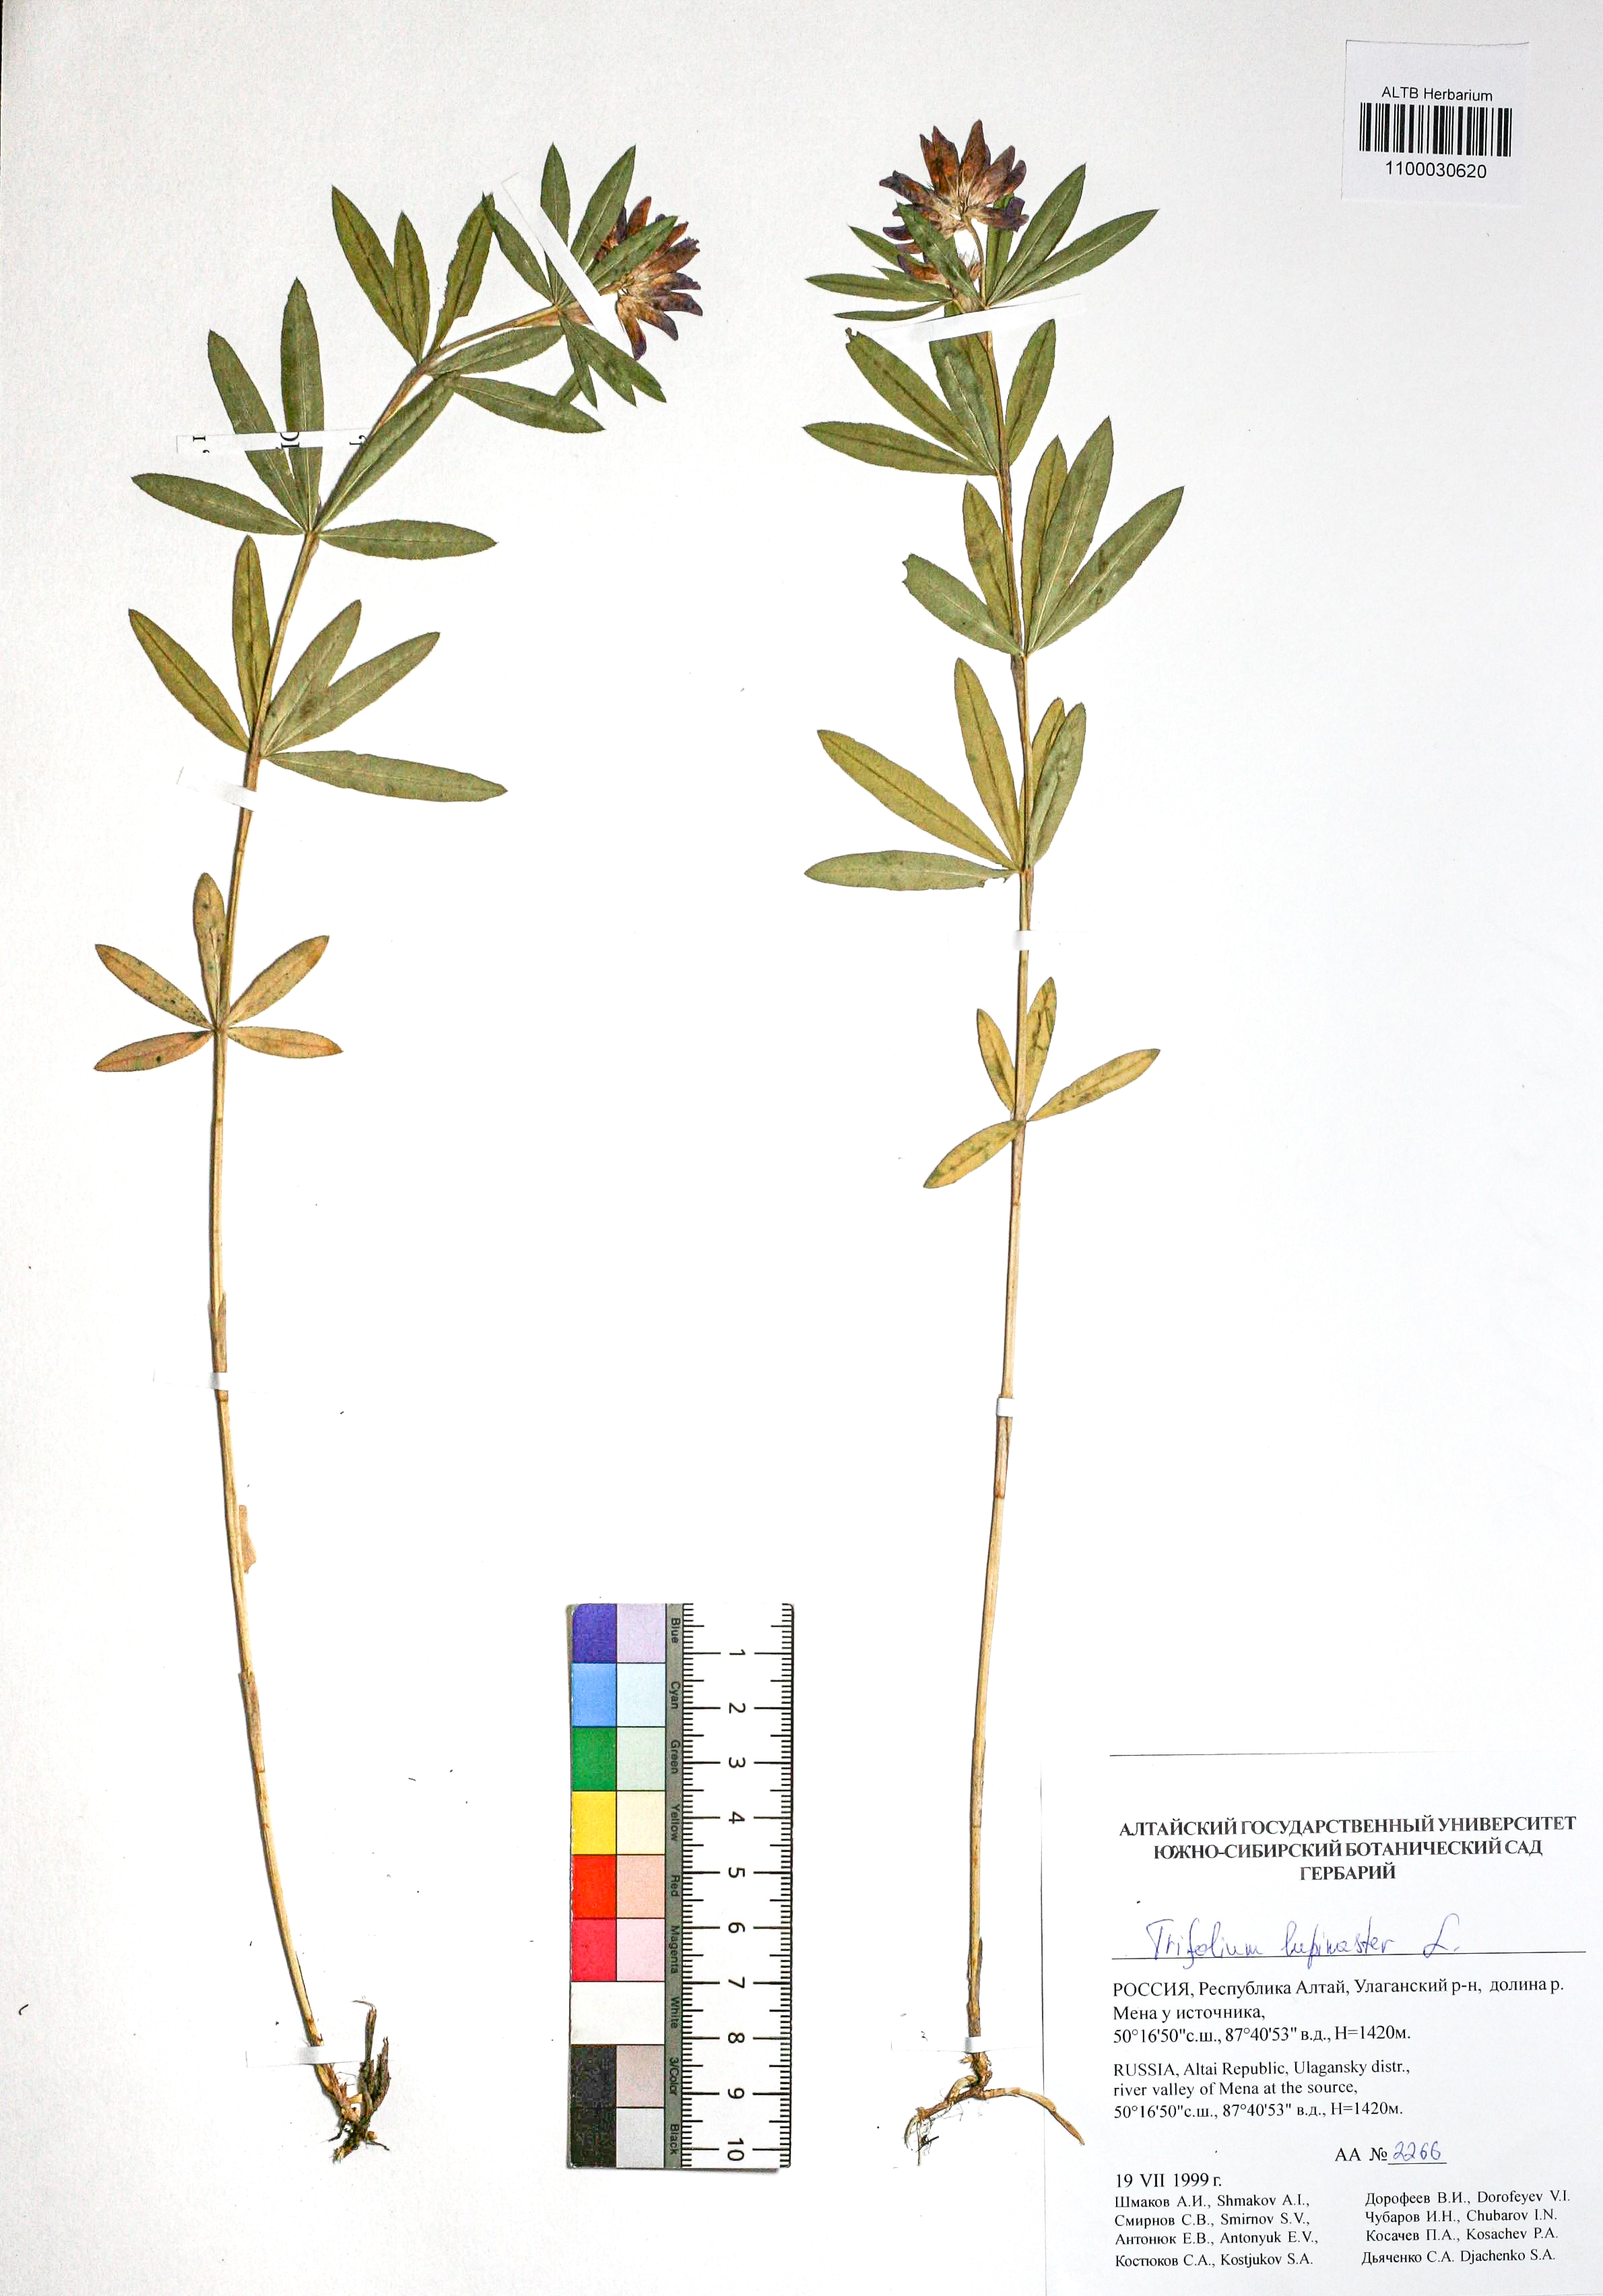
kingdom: Plantae
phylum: Tracheophyta
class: Magnoliopsida
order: Fabales
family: Fabaceae
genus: Trifolium
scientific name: Trifolium lupinaster
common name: Lupine clover
